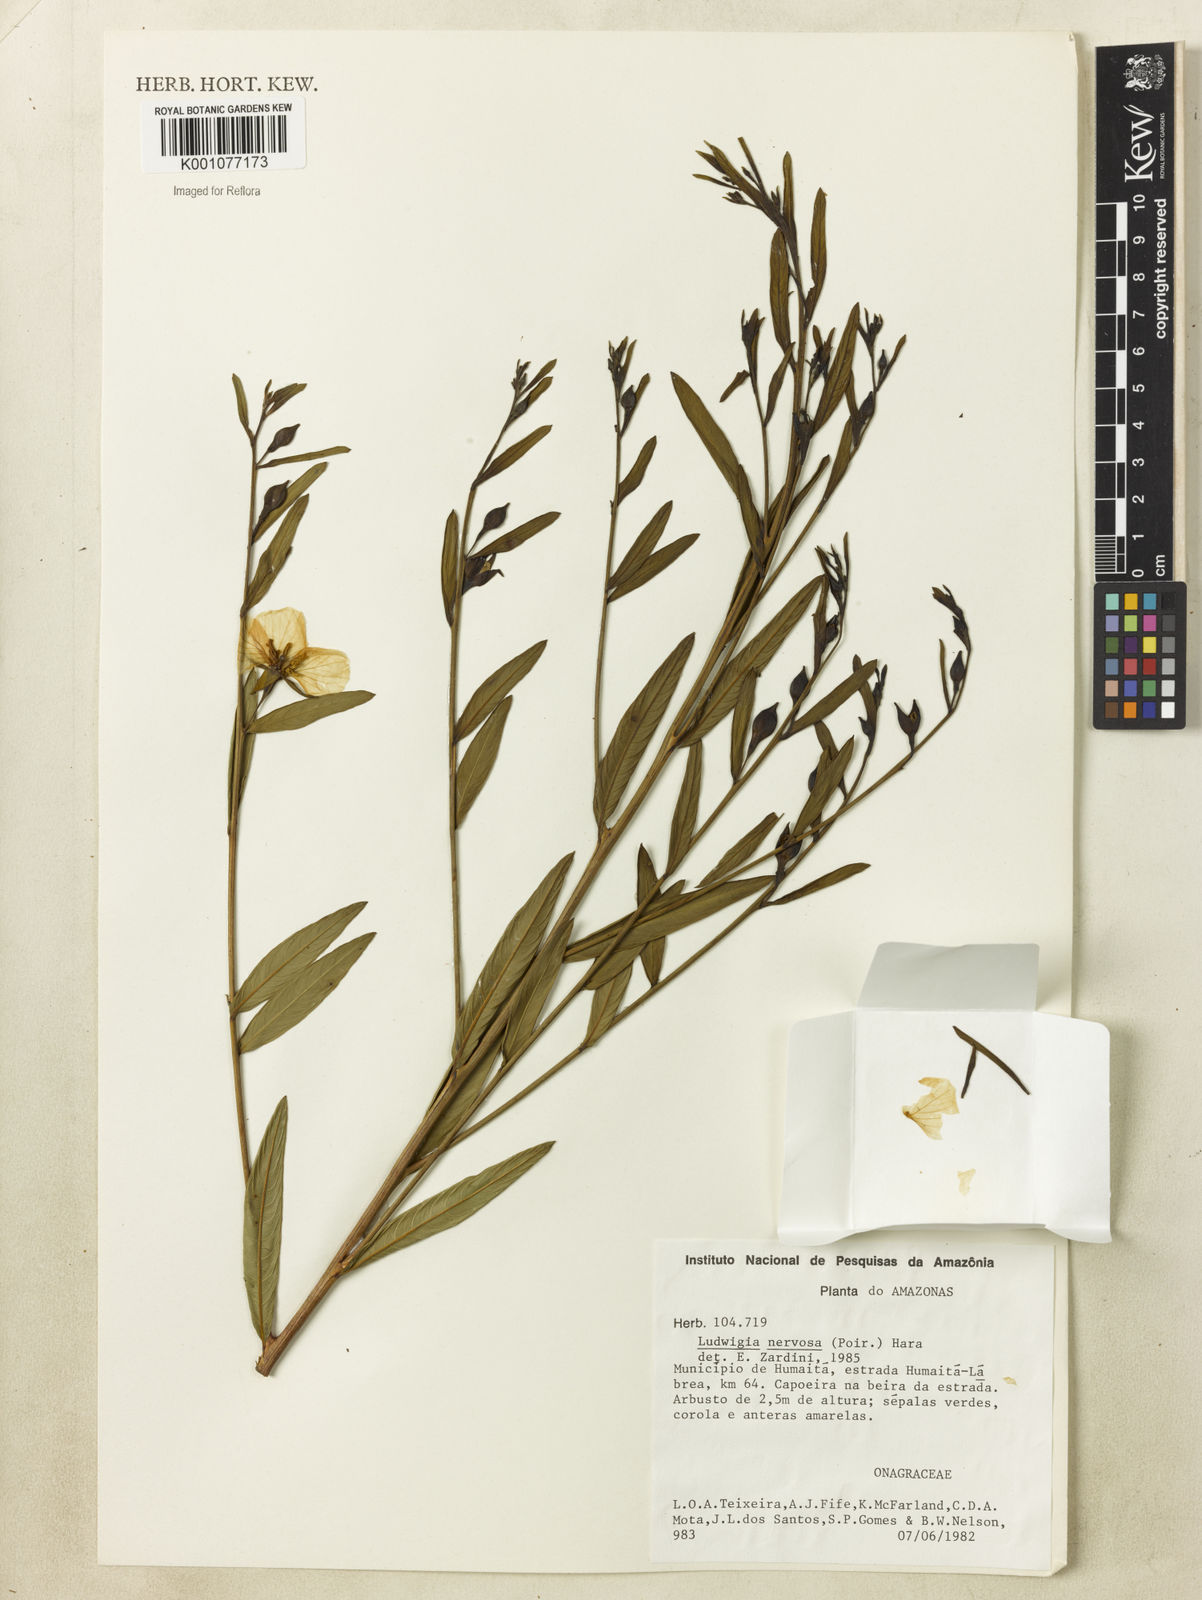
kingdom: Plantae
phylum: Tracheophyta
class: Magnoliopsida
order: Myrtales
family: Onagraceae
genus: Ludwigia
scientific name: Ludwigia nervosa
